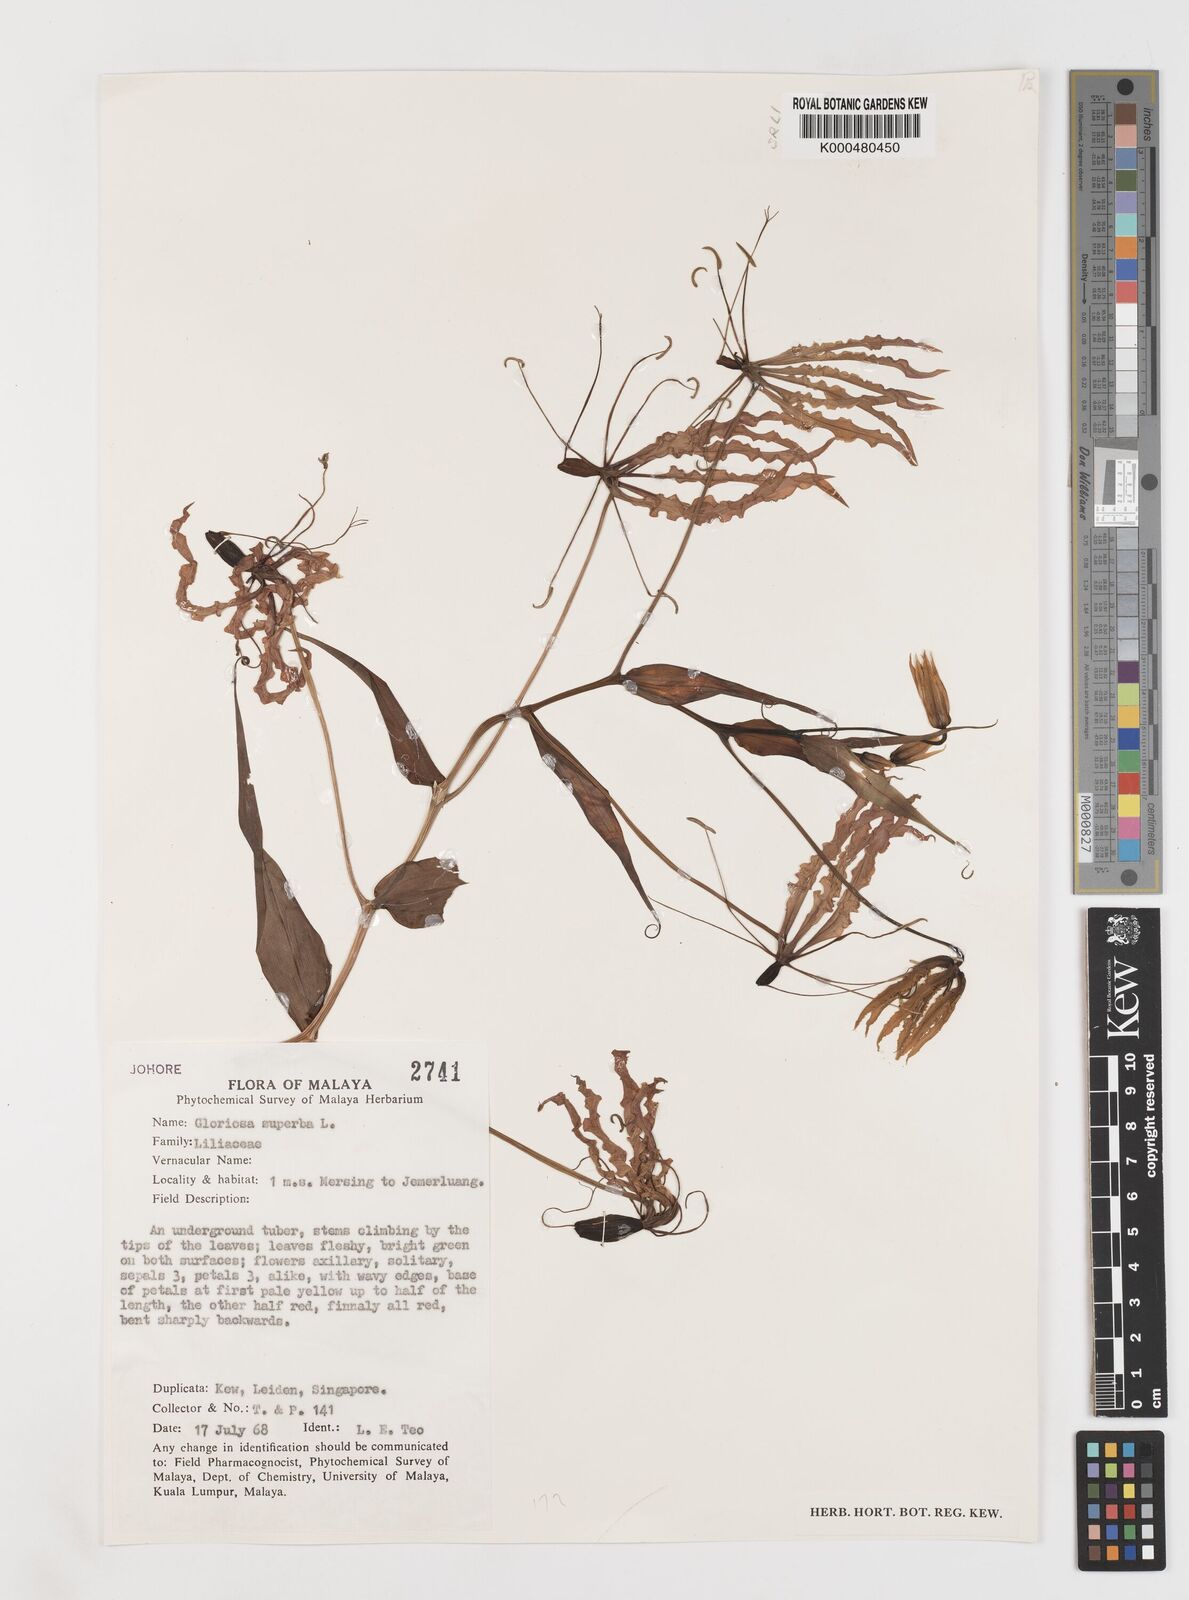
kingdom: Plantae
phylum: Tracheophyta
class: Liliopsida
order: Liliales
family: Colchicaceae
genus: Gloriosa
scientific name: Gloriosa superba
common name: Flame lily
